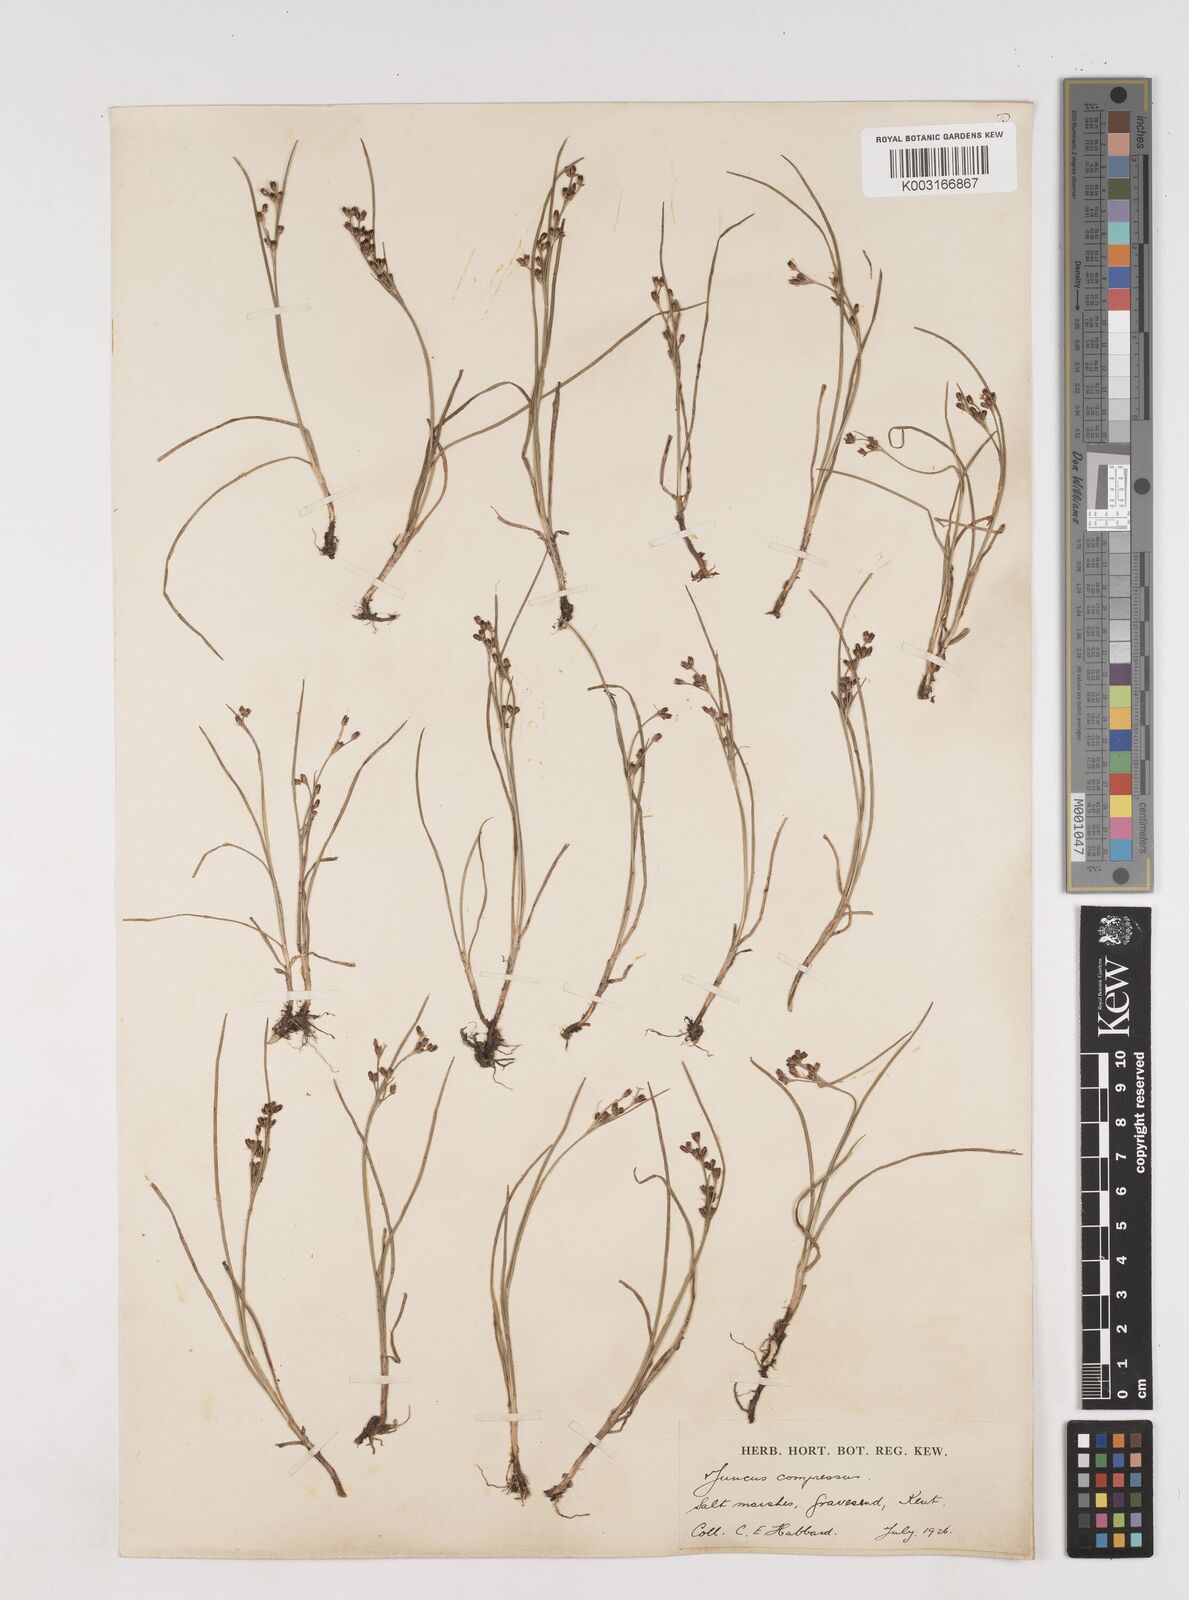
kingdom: Plantae
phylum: Tracheophyta
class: Liliopsida
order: Poales
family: Juncaceae
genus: Juncus
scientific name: Juncus gerardi
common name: Saltmarsh rush
